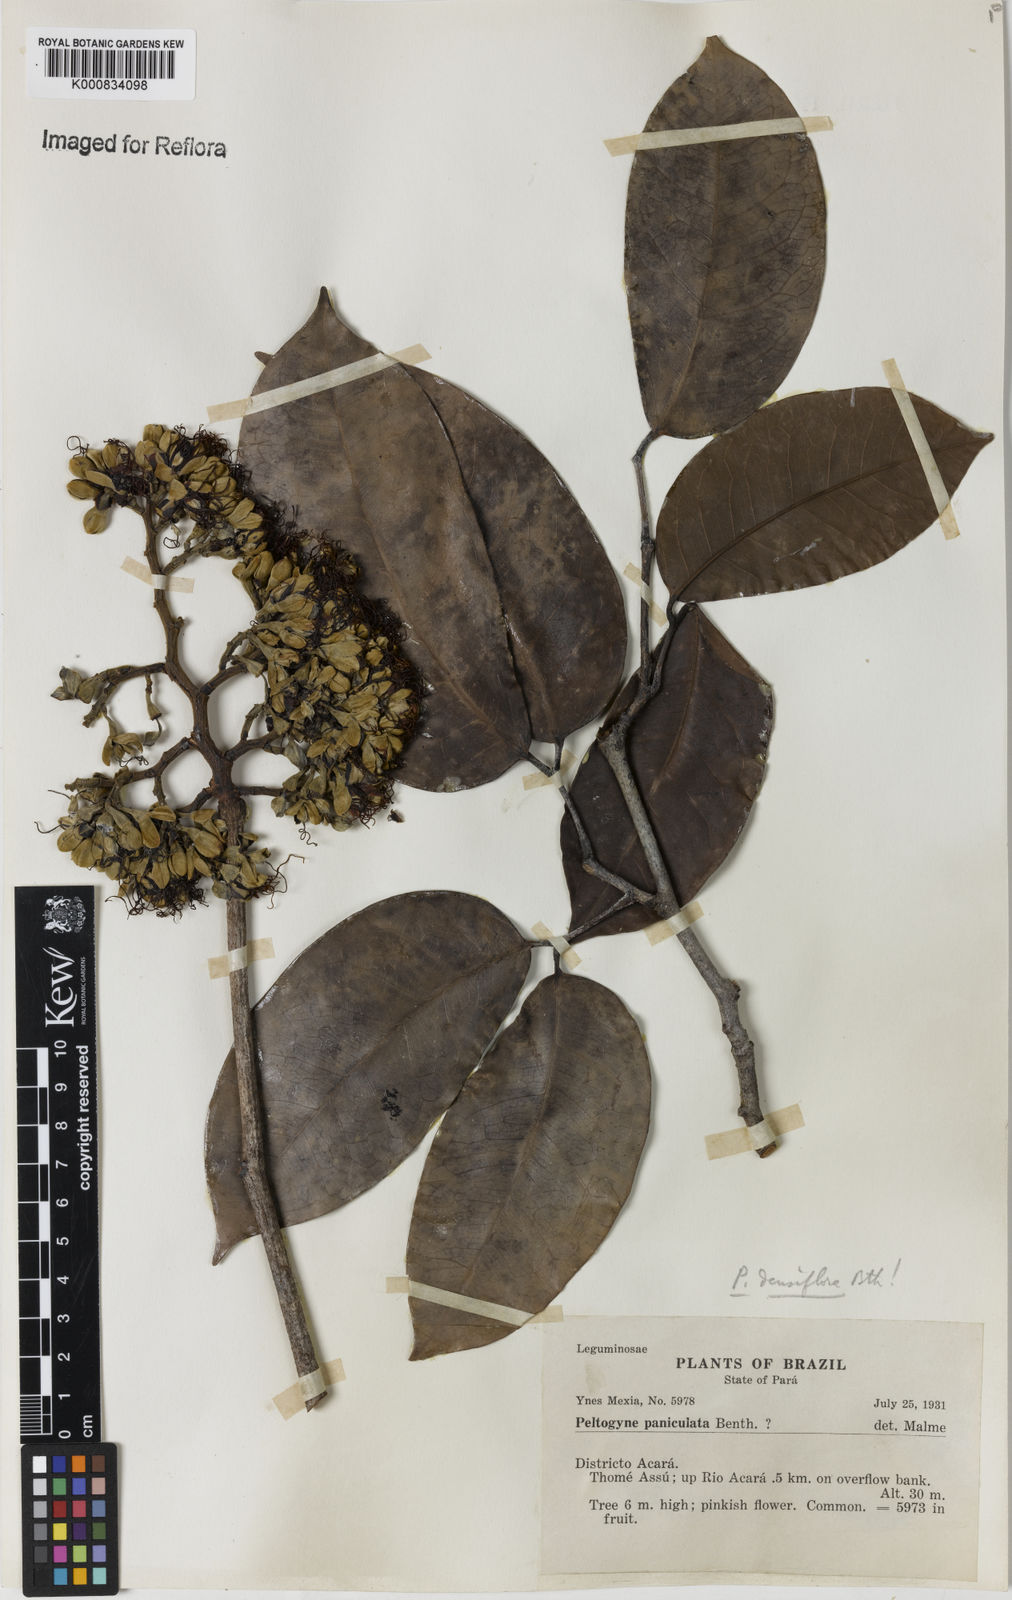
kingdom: Plantae
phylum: Tracheophyta
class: Magnoliopsida
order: Fabales
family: Fabaceae
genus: Peltogyne
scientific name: Peltogyne venosa
